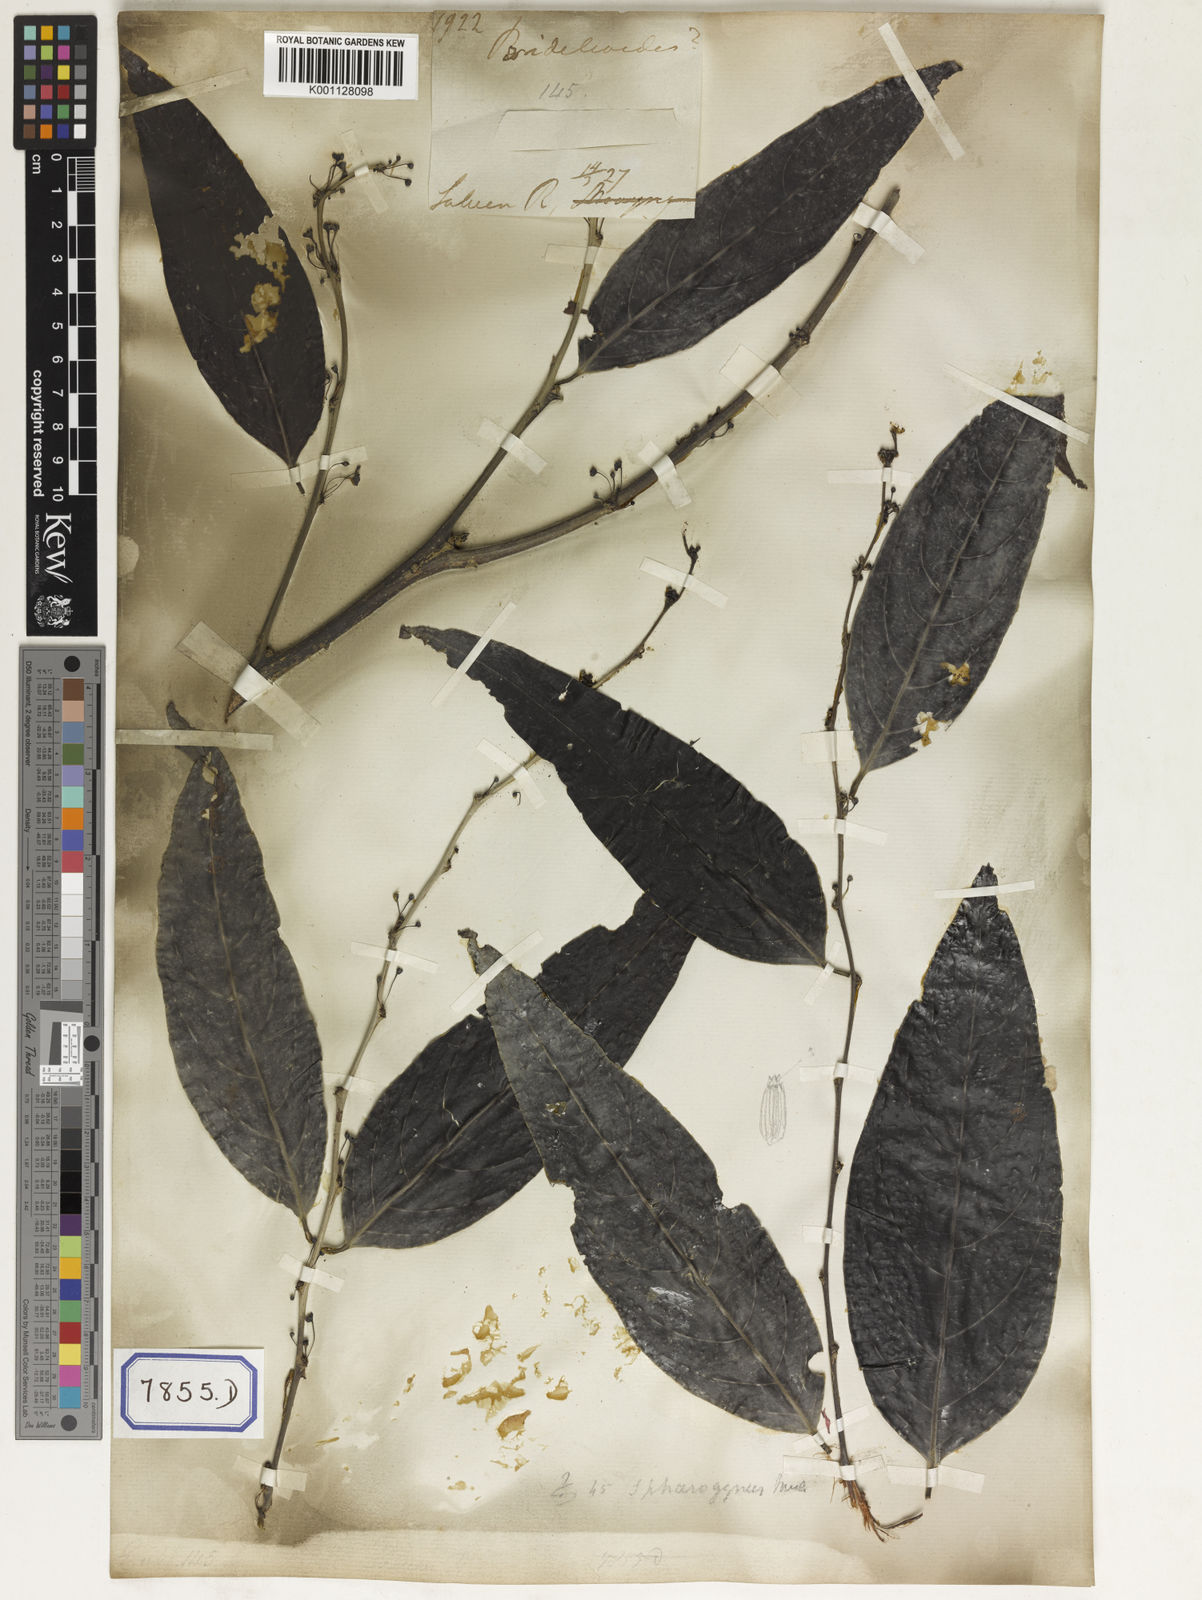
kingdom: Plantae
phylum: Tracheophyta
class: Magnoliopsida
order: Malpighiales
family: Euphorbiaceae
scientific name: Euphorbiaceae
